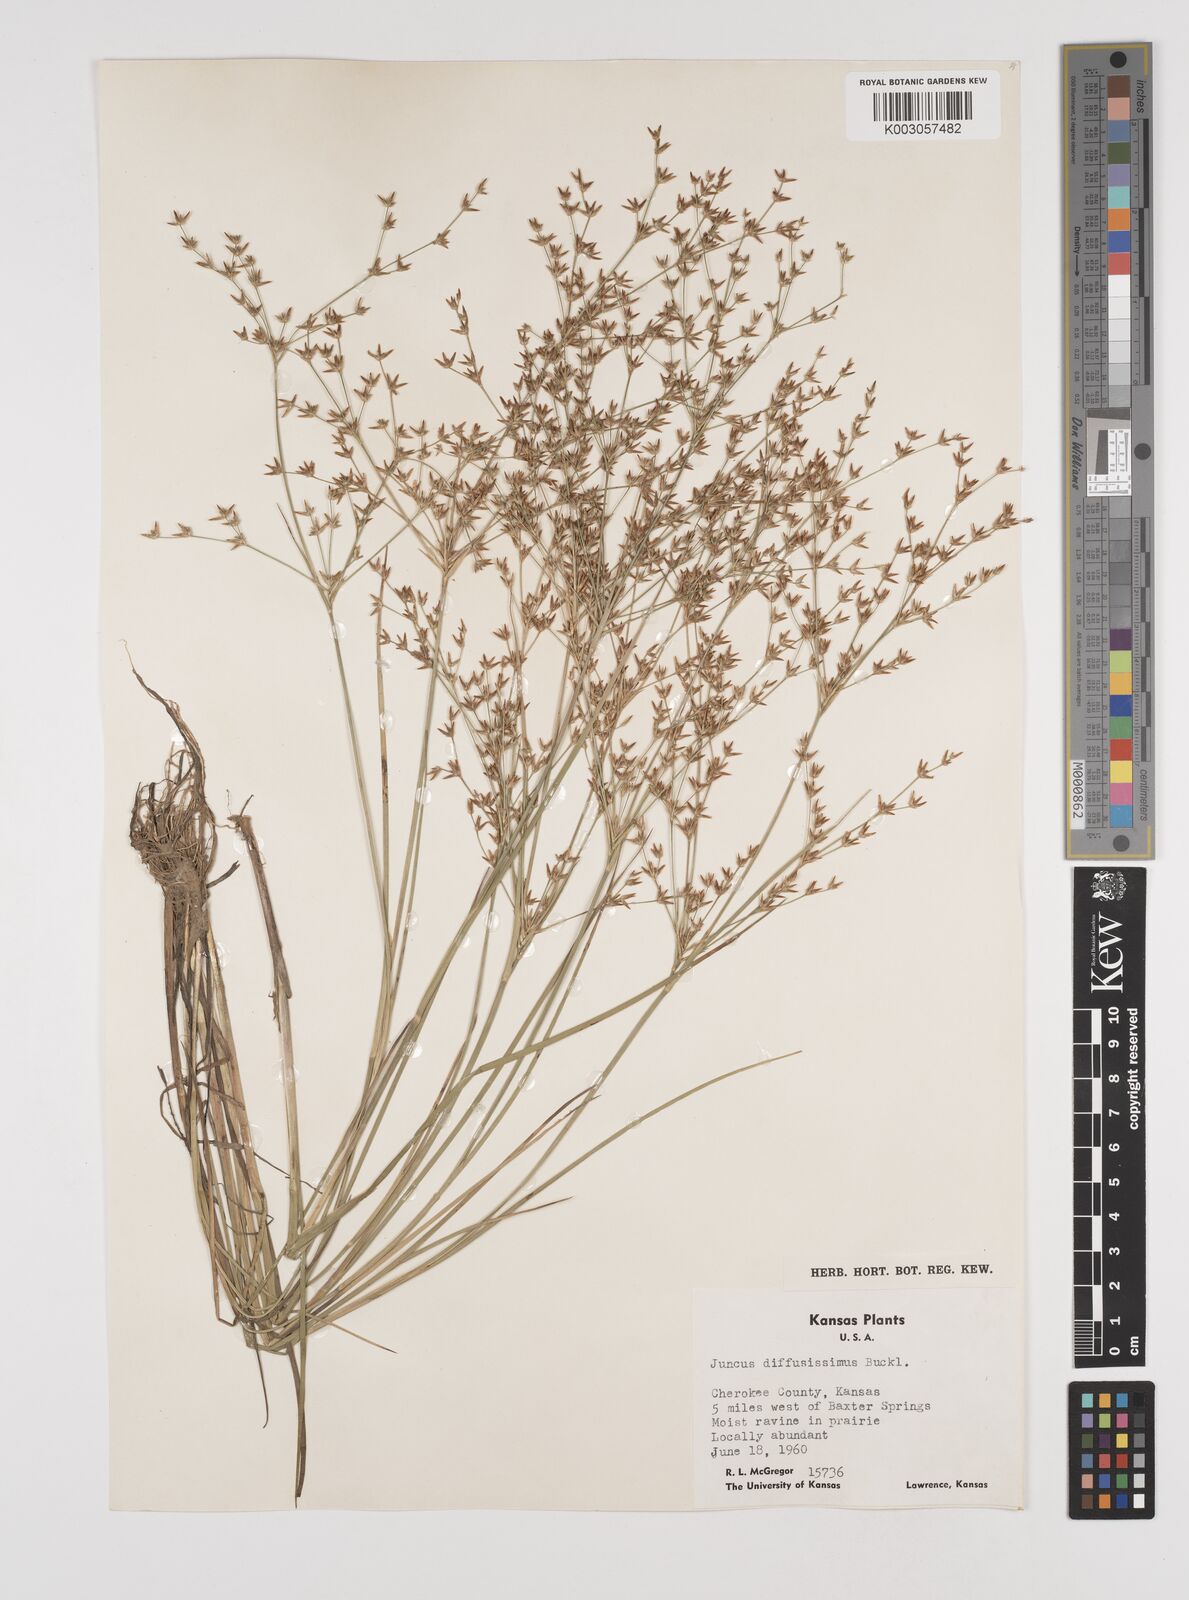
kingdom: Plantae
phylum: Tracheophyta
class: Liliopsida
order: Poales
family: Juncaceae
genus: Juncus
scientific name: Juncus diffusissimus
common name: Slimpod rush
